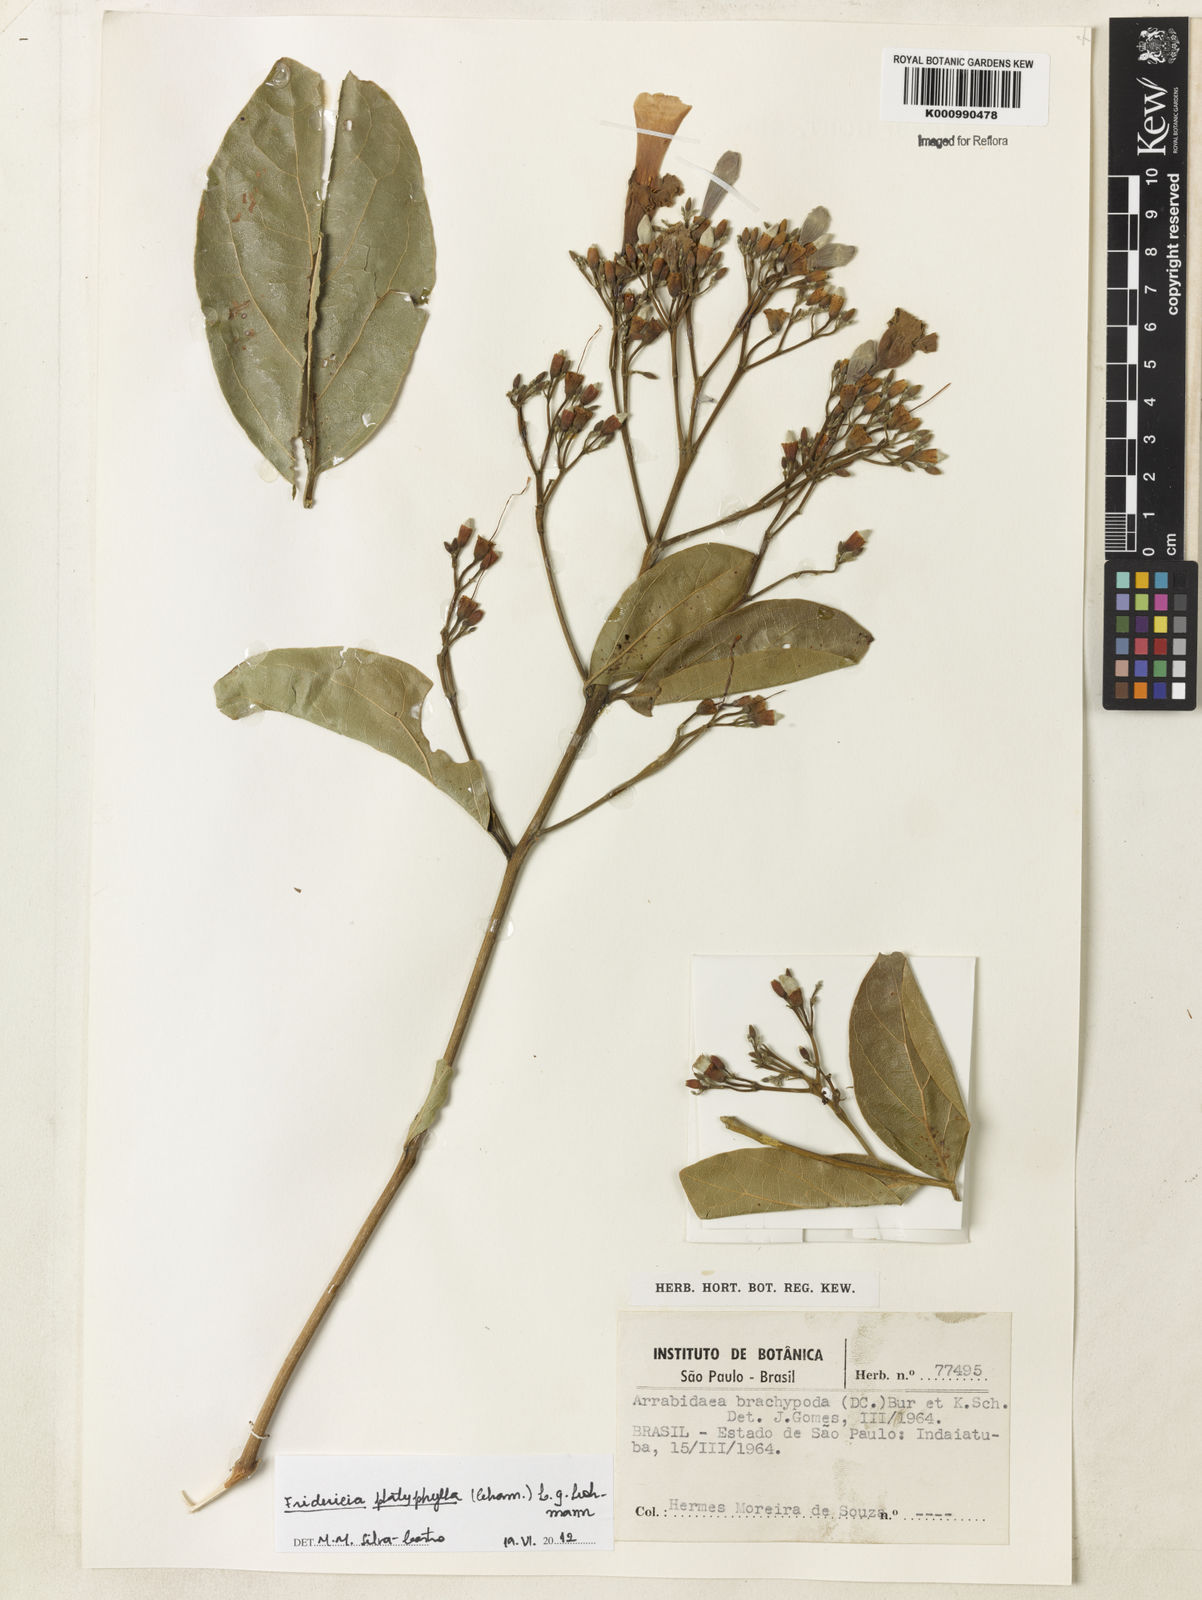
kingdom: Plantae
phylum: Tracheophyta
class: Magnoliopsida
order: Lamiales
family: Bignoniaceae
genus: Fridericia
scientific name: Fridericia platyphylla
